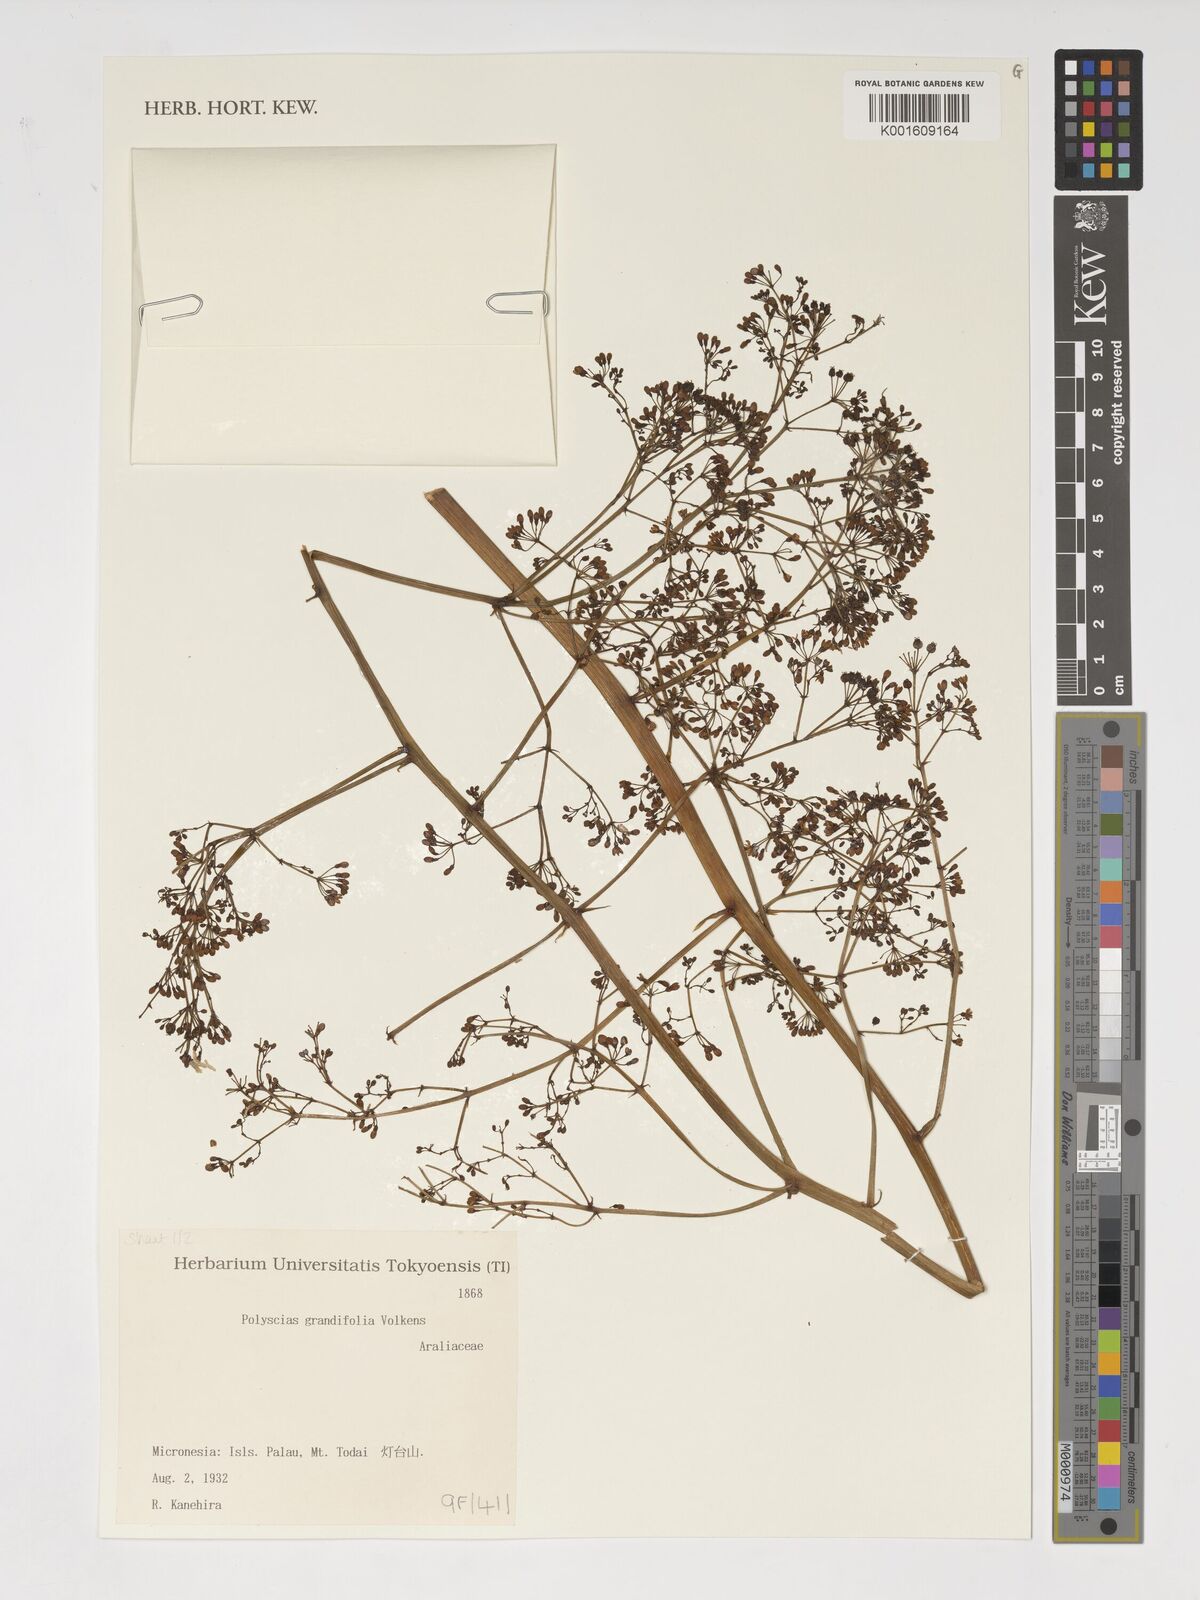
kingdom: Plantae
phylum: Tracheophyta
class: Magnoliopsida
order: Apiales
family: Araliaceae
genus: Polyscias
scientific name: Polyscias macgillivrayi
